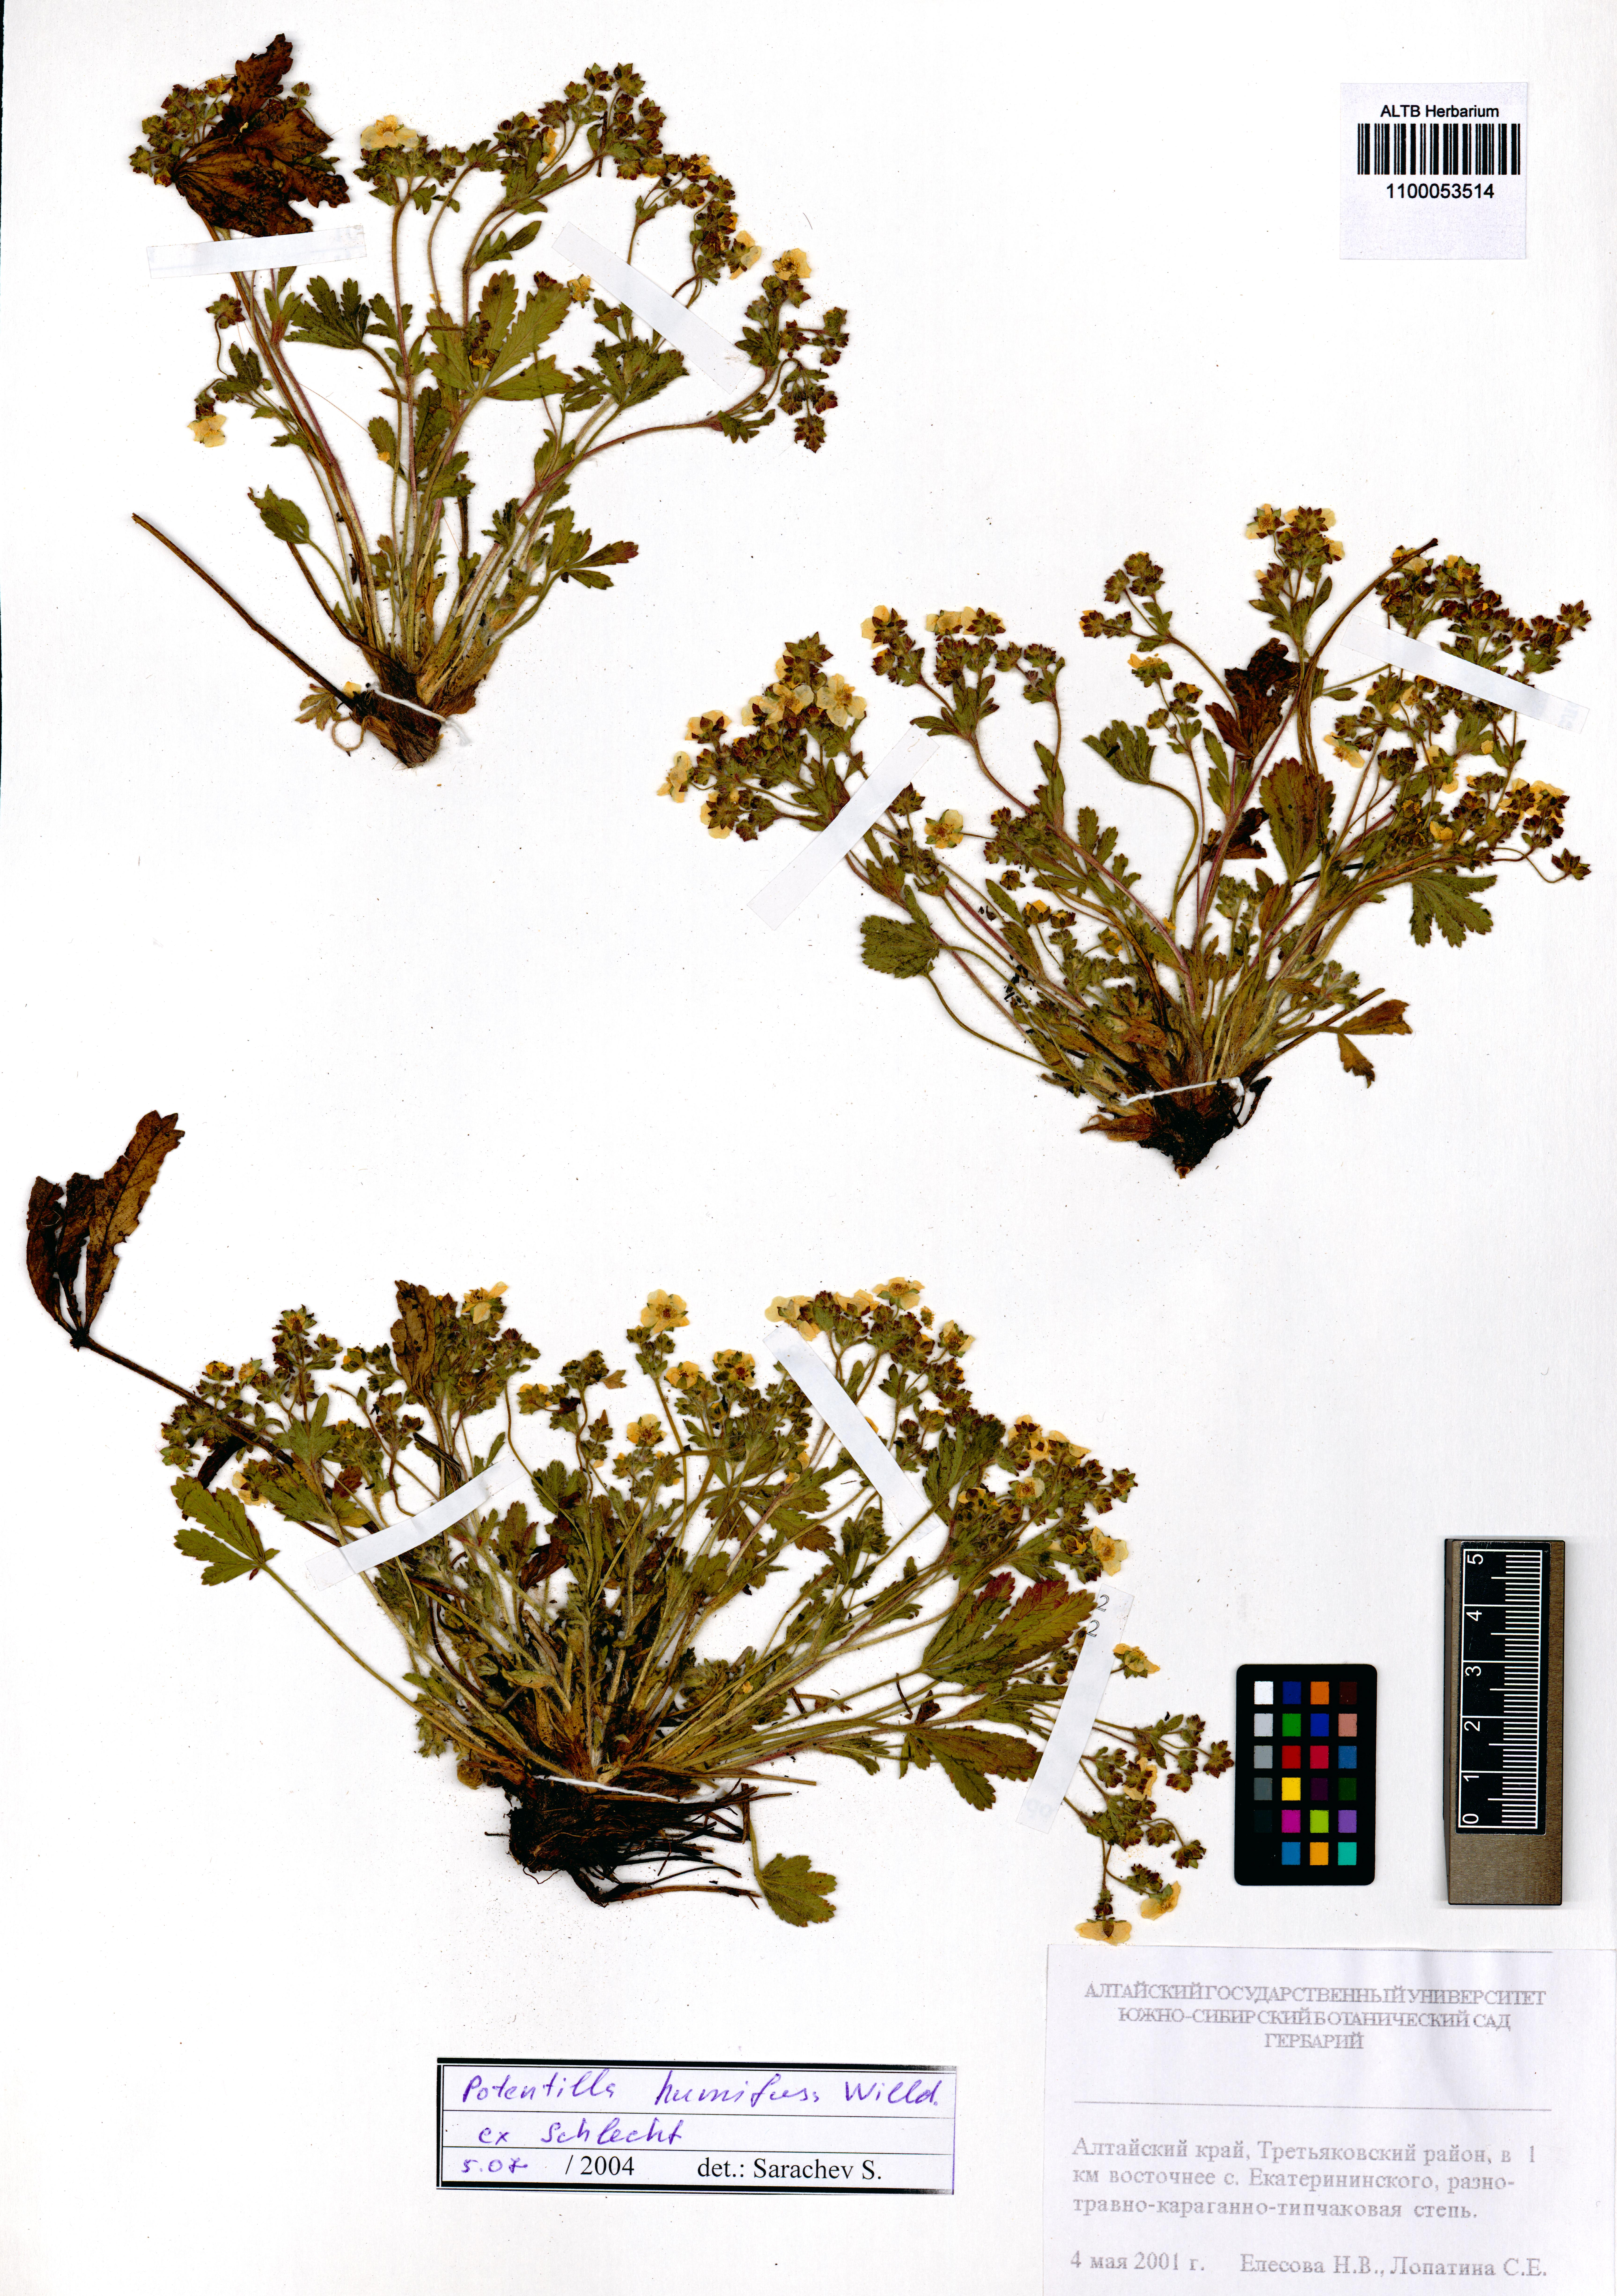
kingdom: Plantae
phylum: Tracheophyta
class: Magnoliopsida
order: Rosales
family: Rosaceae
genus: Potentilla
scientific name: Potentilla humifusa
